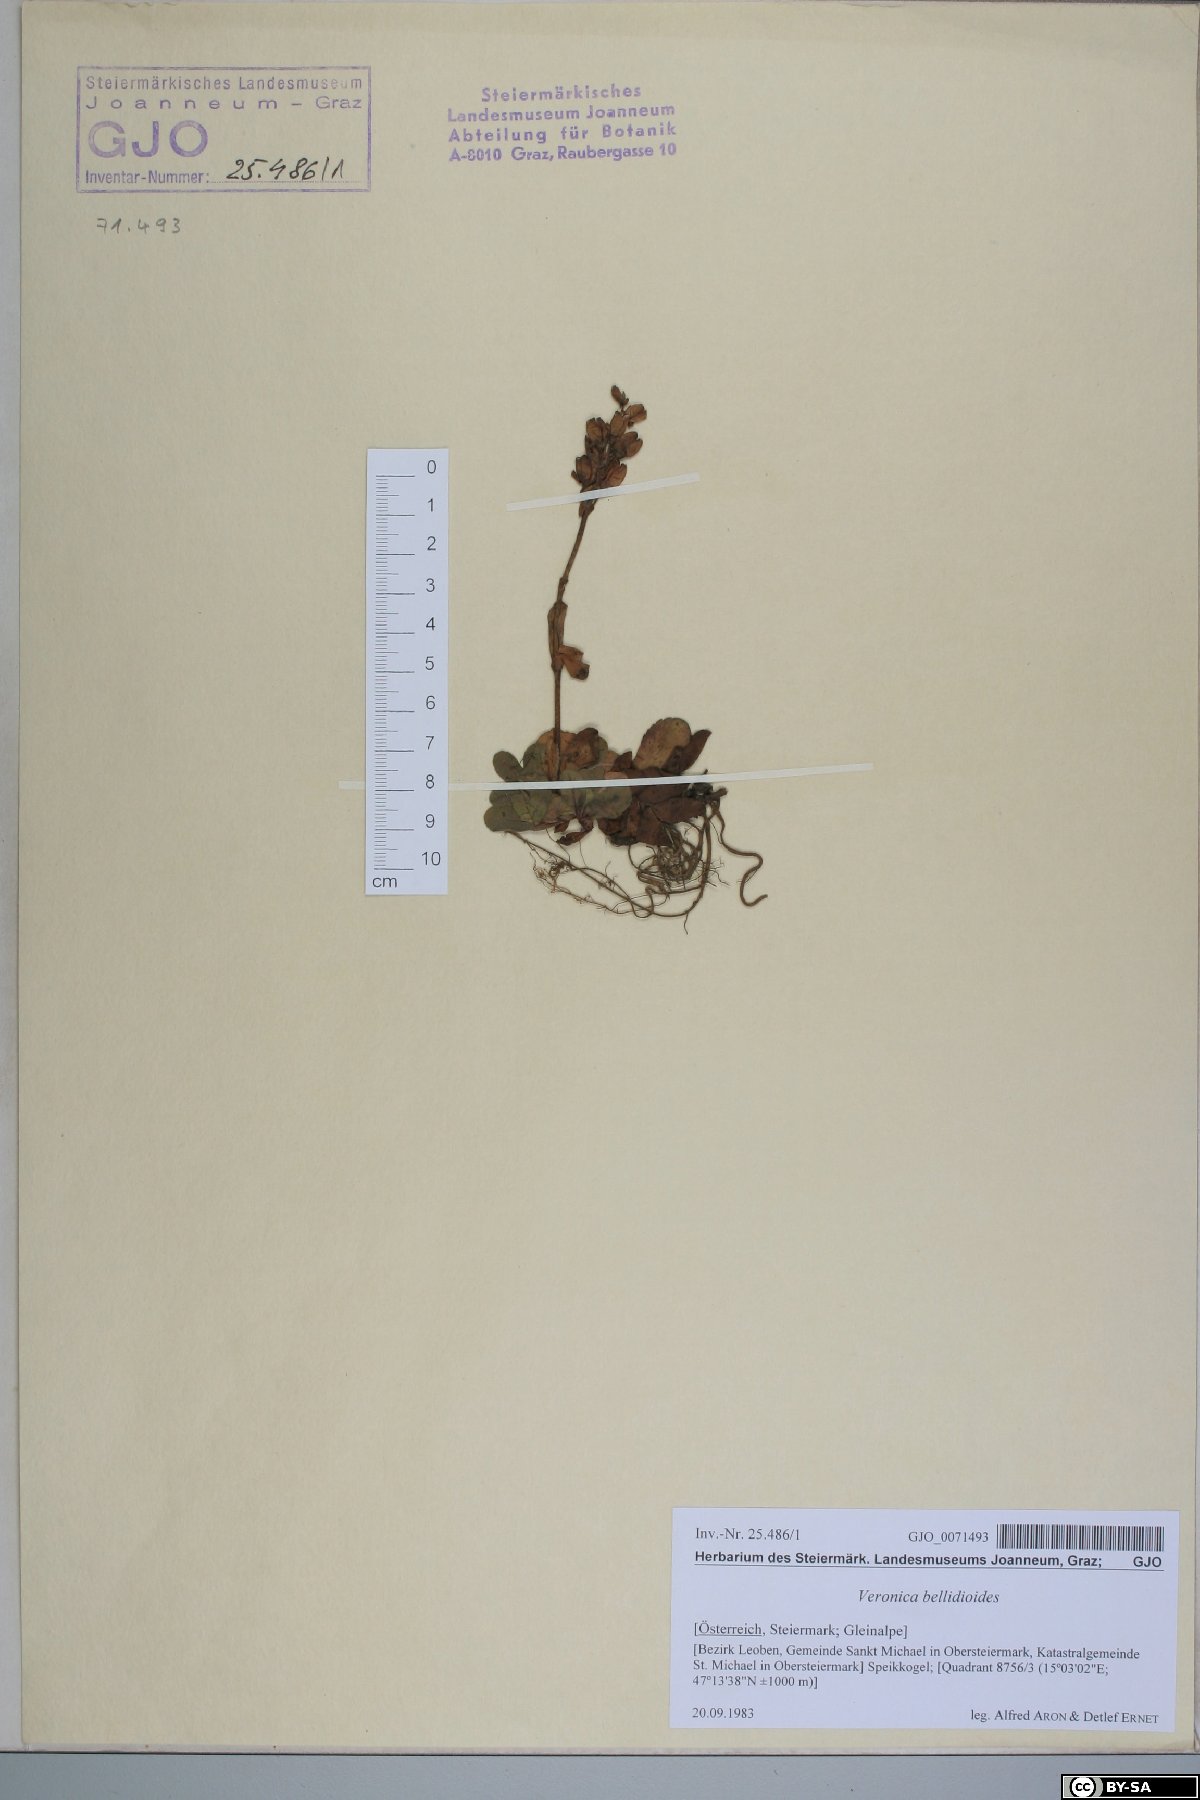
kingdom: Plantae
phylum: Tracheophyta
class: Magnoliopsida
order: Lamiales
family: Plantaginaceae
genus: Veronica
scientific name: Veronica bellidioides
